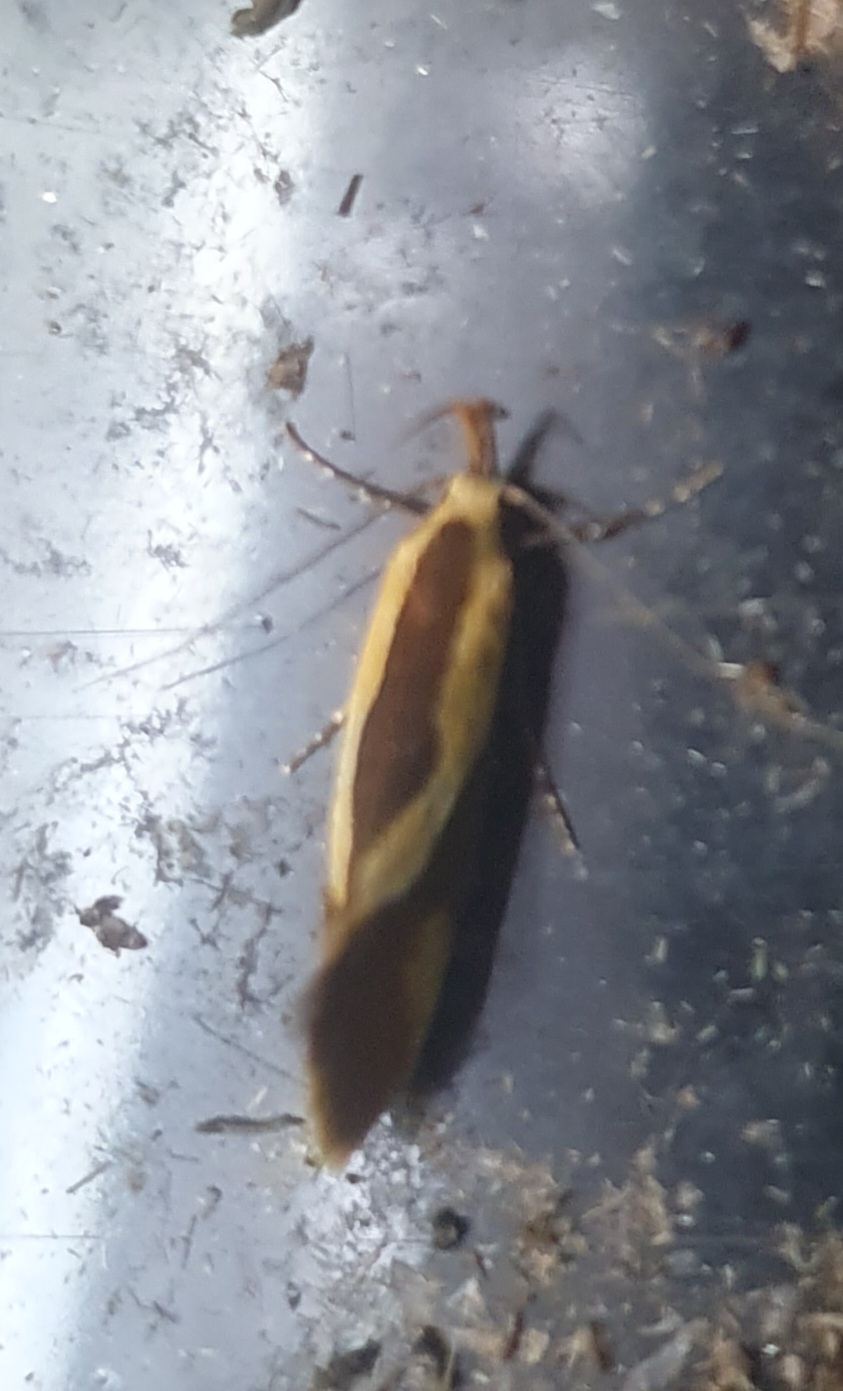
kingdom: Animalia
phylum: Arthropoda
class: Insecta
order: Lepidoptera
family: Oecophoridae
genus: Harpella
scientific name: Harpella forficella
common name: Kæmpeprydvinge
